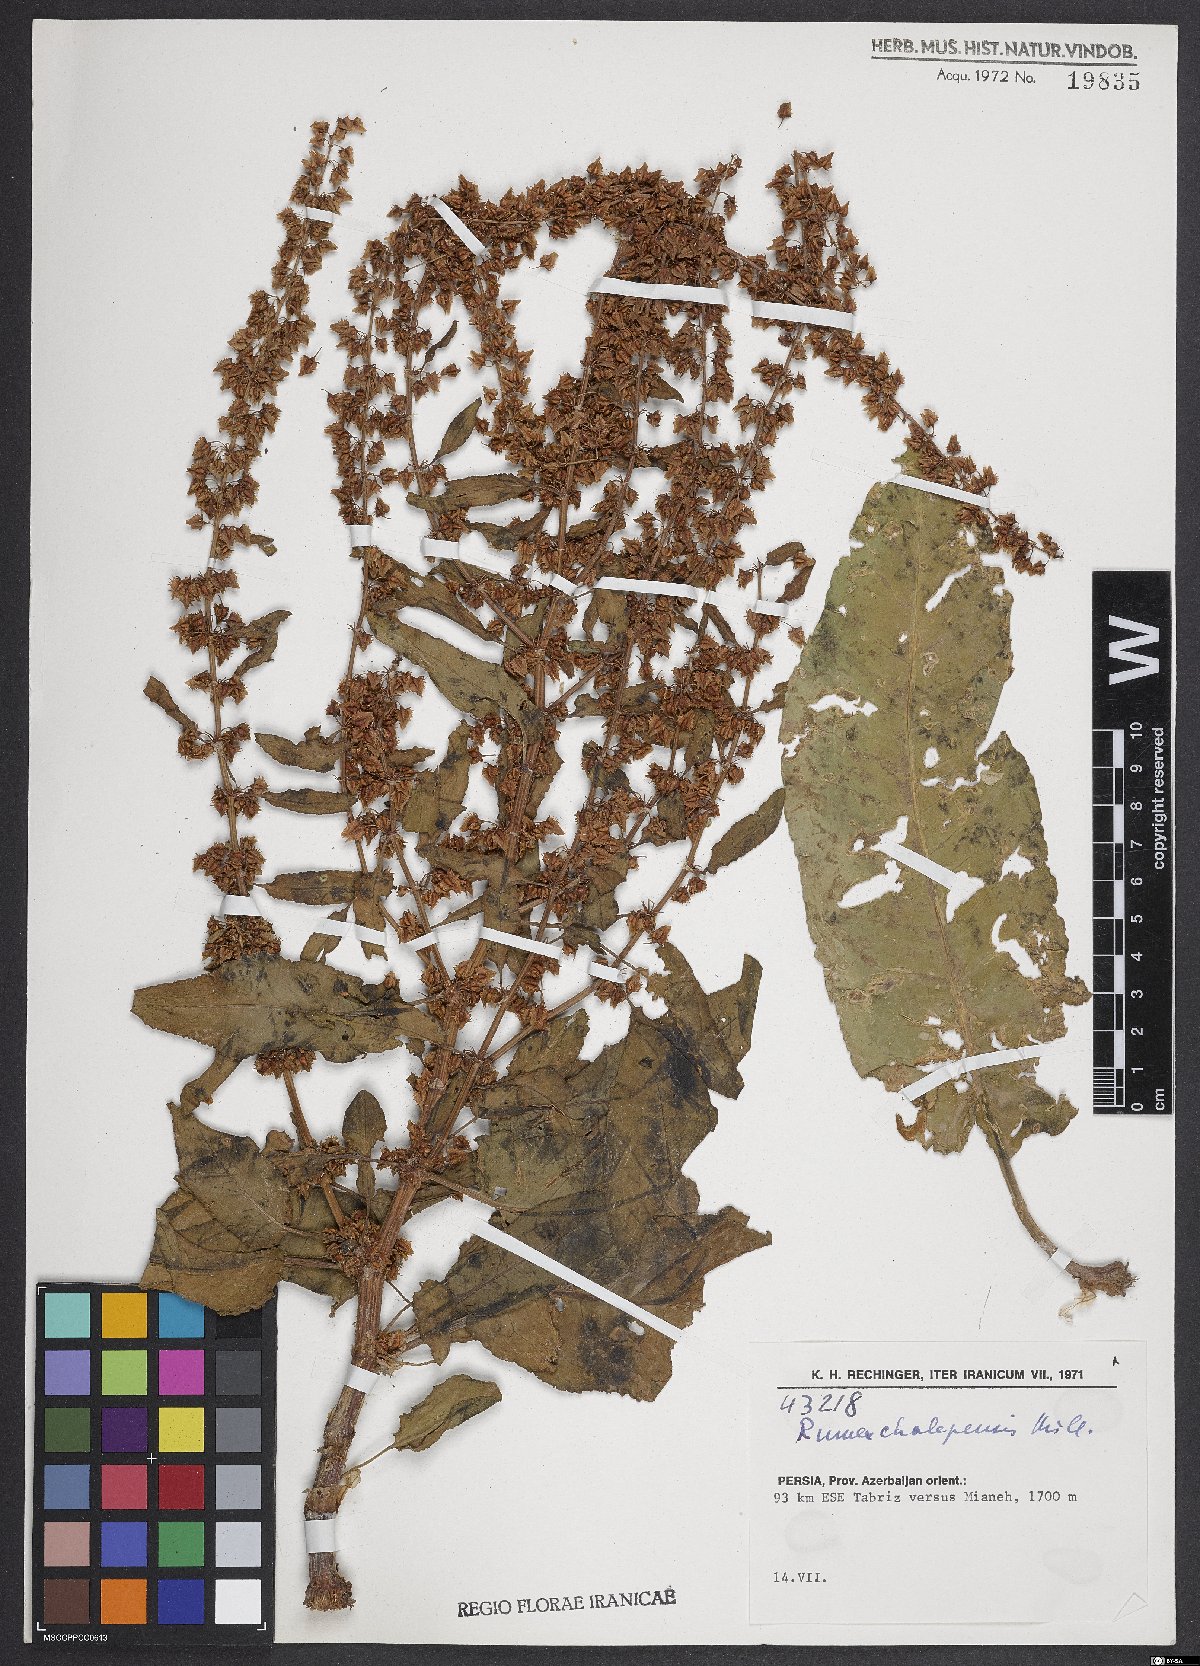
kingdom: Plantae
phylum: Tracheophyta
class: Magnoliopsida
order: Caryophyllales
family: Polygonaceae
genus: Rumex
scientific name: Rumex chalepensis
